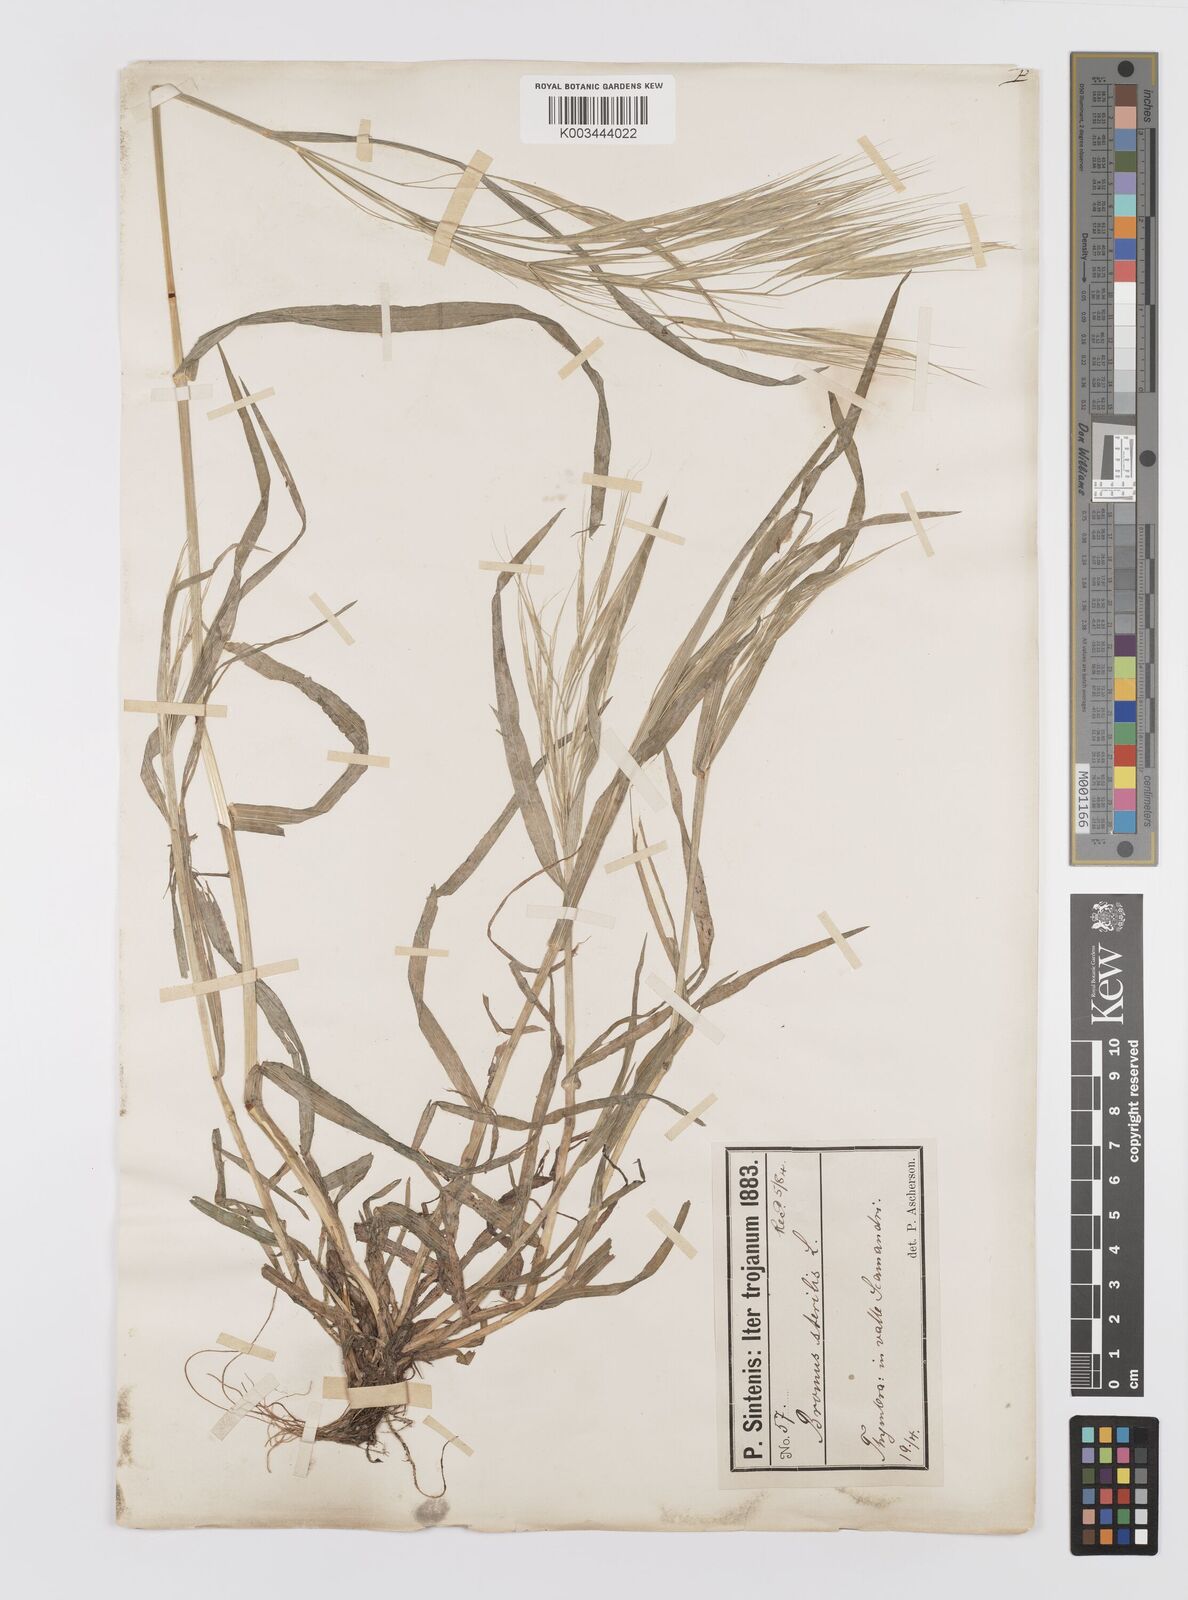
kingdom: Plantae
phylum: Tracheophyta
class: Liliopsida
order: Poales
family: Poaceae
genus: Bromus
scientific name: Bromus sterilis
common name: Poverty brome
